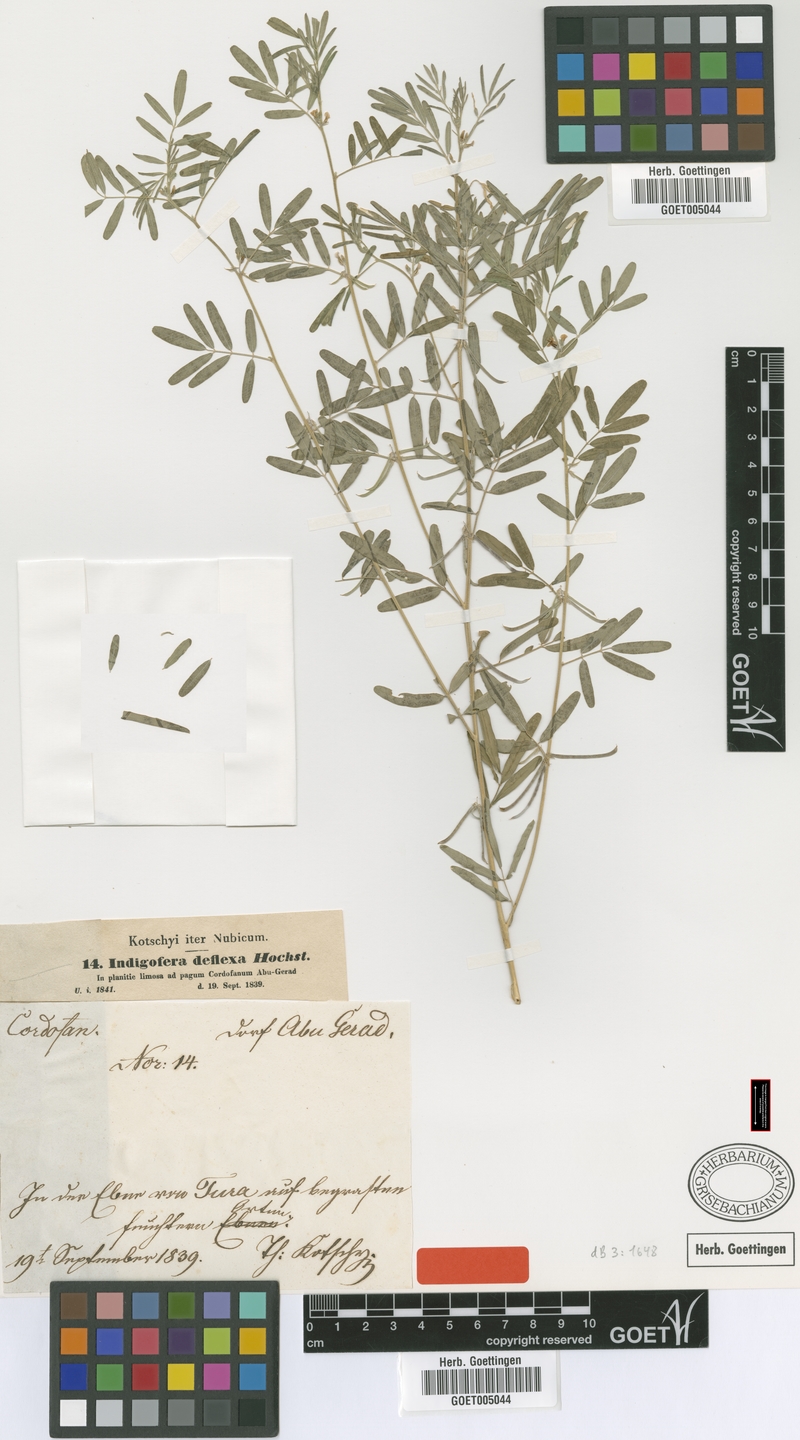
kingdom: Plantae
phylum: Tracheophyta
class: Magnoliopsida
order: Fabales
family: Fabaceae
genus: Indigastrum
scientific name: Indigastrum parviflorum
